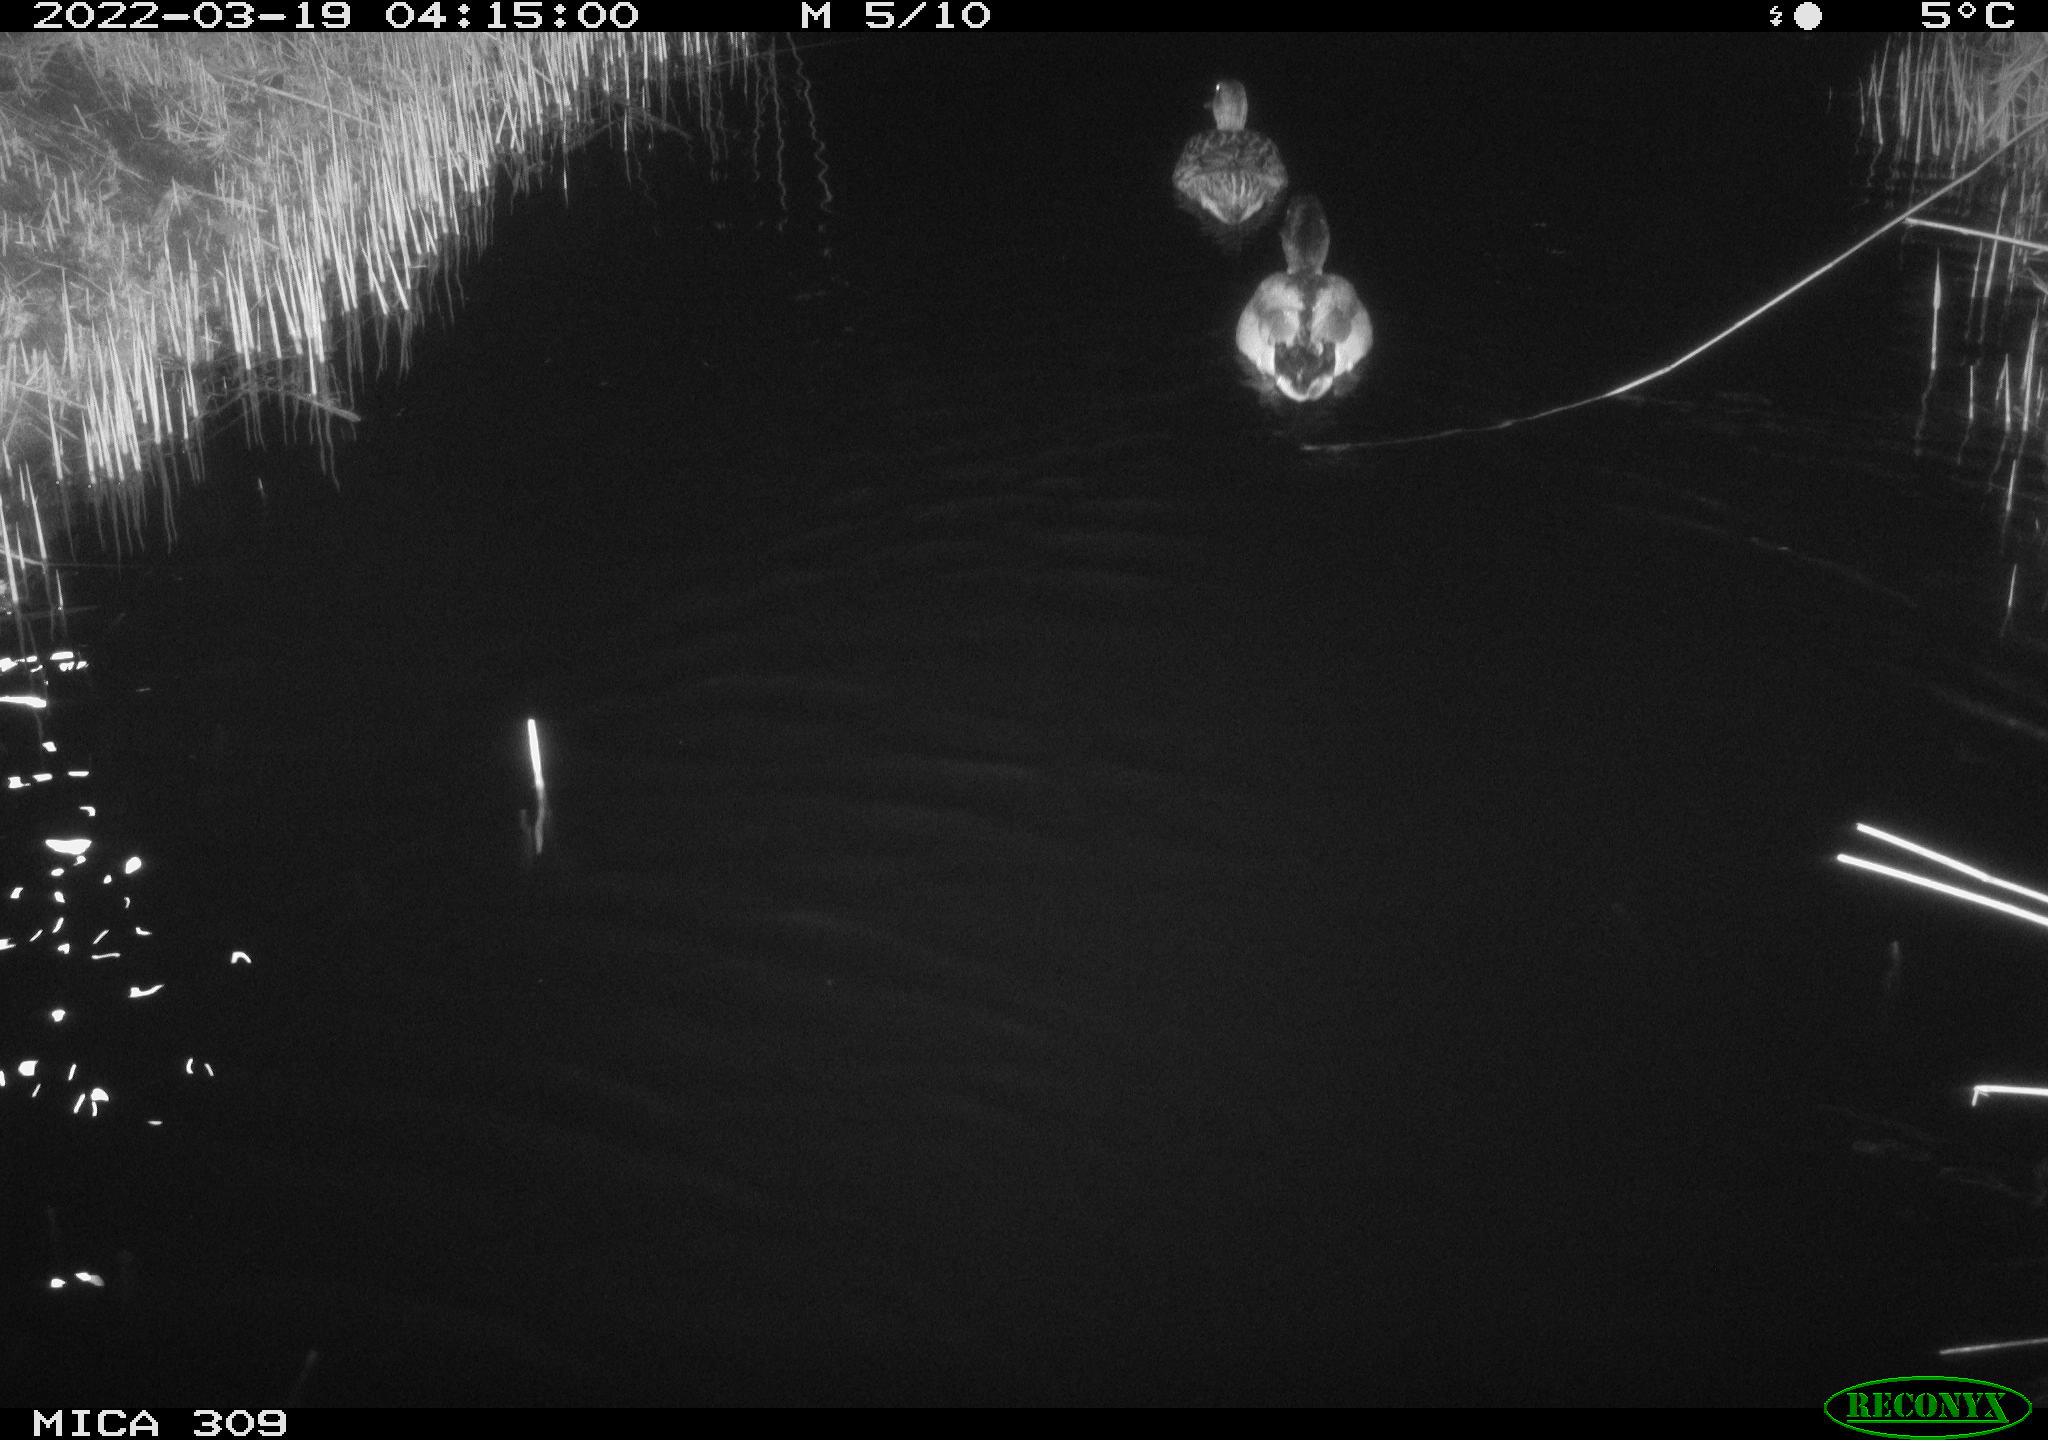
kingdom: Animalia
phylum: Chordata
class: Aves
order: Anseriformes
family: Anatidae
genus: Anas
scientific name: Anas platyrhynchos
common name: Mallard
